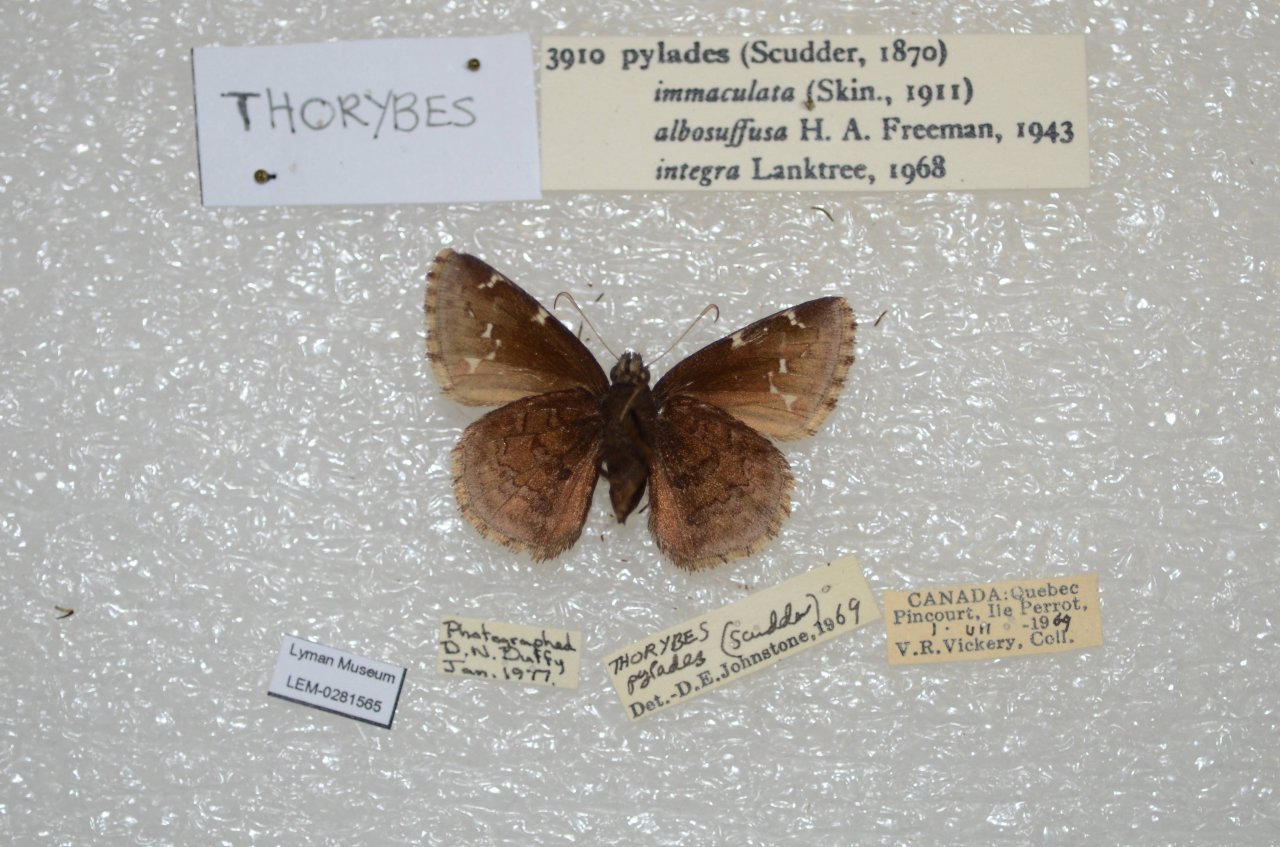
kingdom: Animalia
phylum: Arthropoda
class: Insecta
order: Lepidoptera
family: Hesperiidae
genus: Autochton
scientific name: Autochton
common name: Northern Cloudywing
